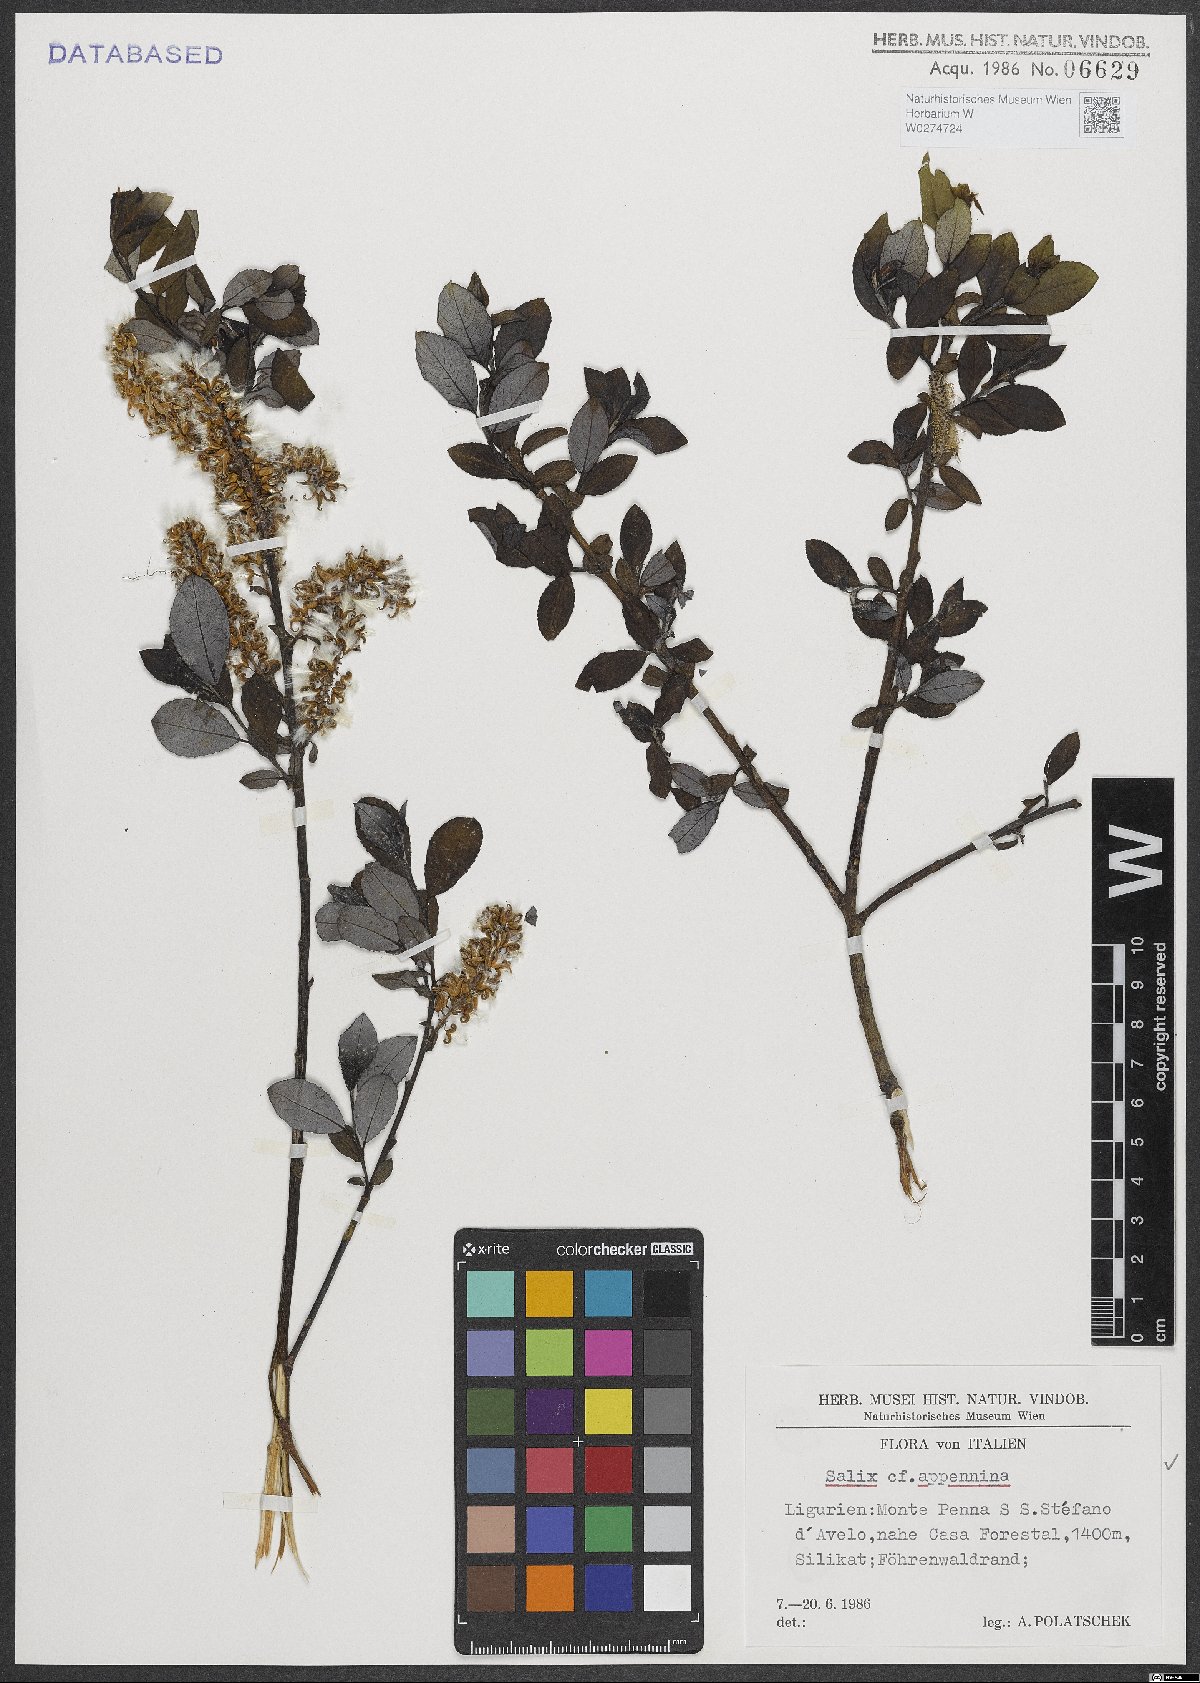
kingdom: Plantae
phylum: Tracheophyta
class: Magnoliopsida
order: Malpighiales
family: Salicaceae
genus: Salix
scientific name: Salix apennina
